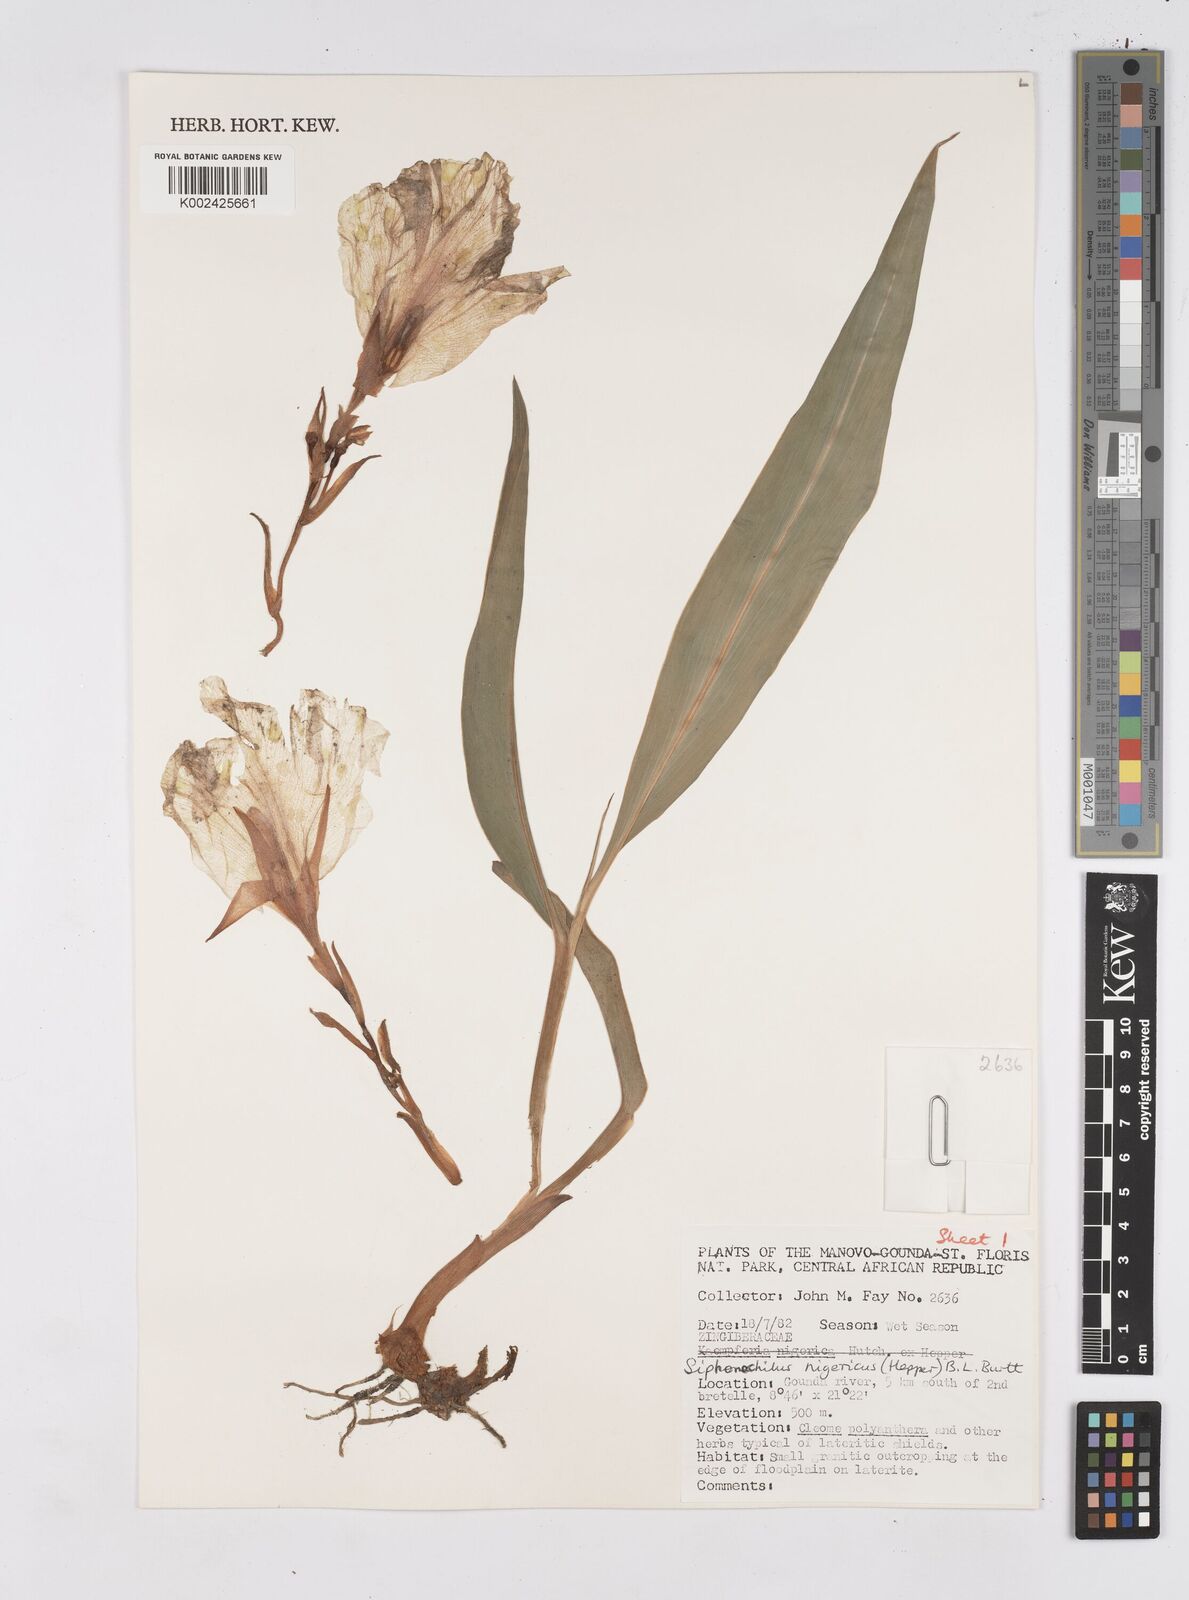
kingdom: Plantae
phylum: Tracheophyta
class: Liliopsida
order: Zingiberales
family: Zingiberaceae
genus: Siphonochilus
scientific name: Siphonochilus nigericus
